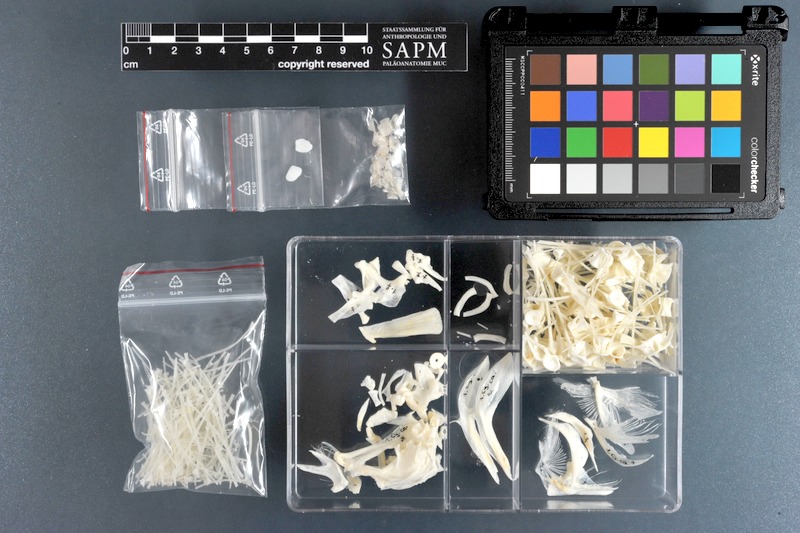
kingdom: Animalia
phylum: Chordata
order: Pleuronectiformes
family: Cynoglossidae
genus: Cynoglossus
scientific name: Cynoglossus canariensis
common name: Canary tonguesole
